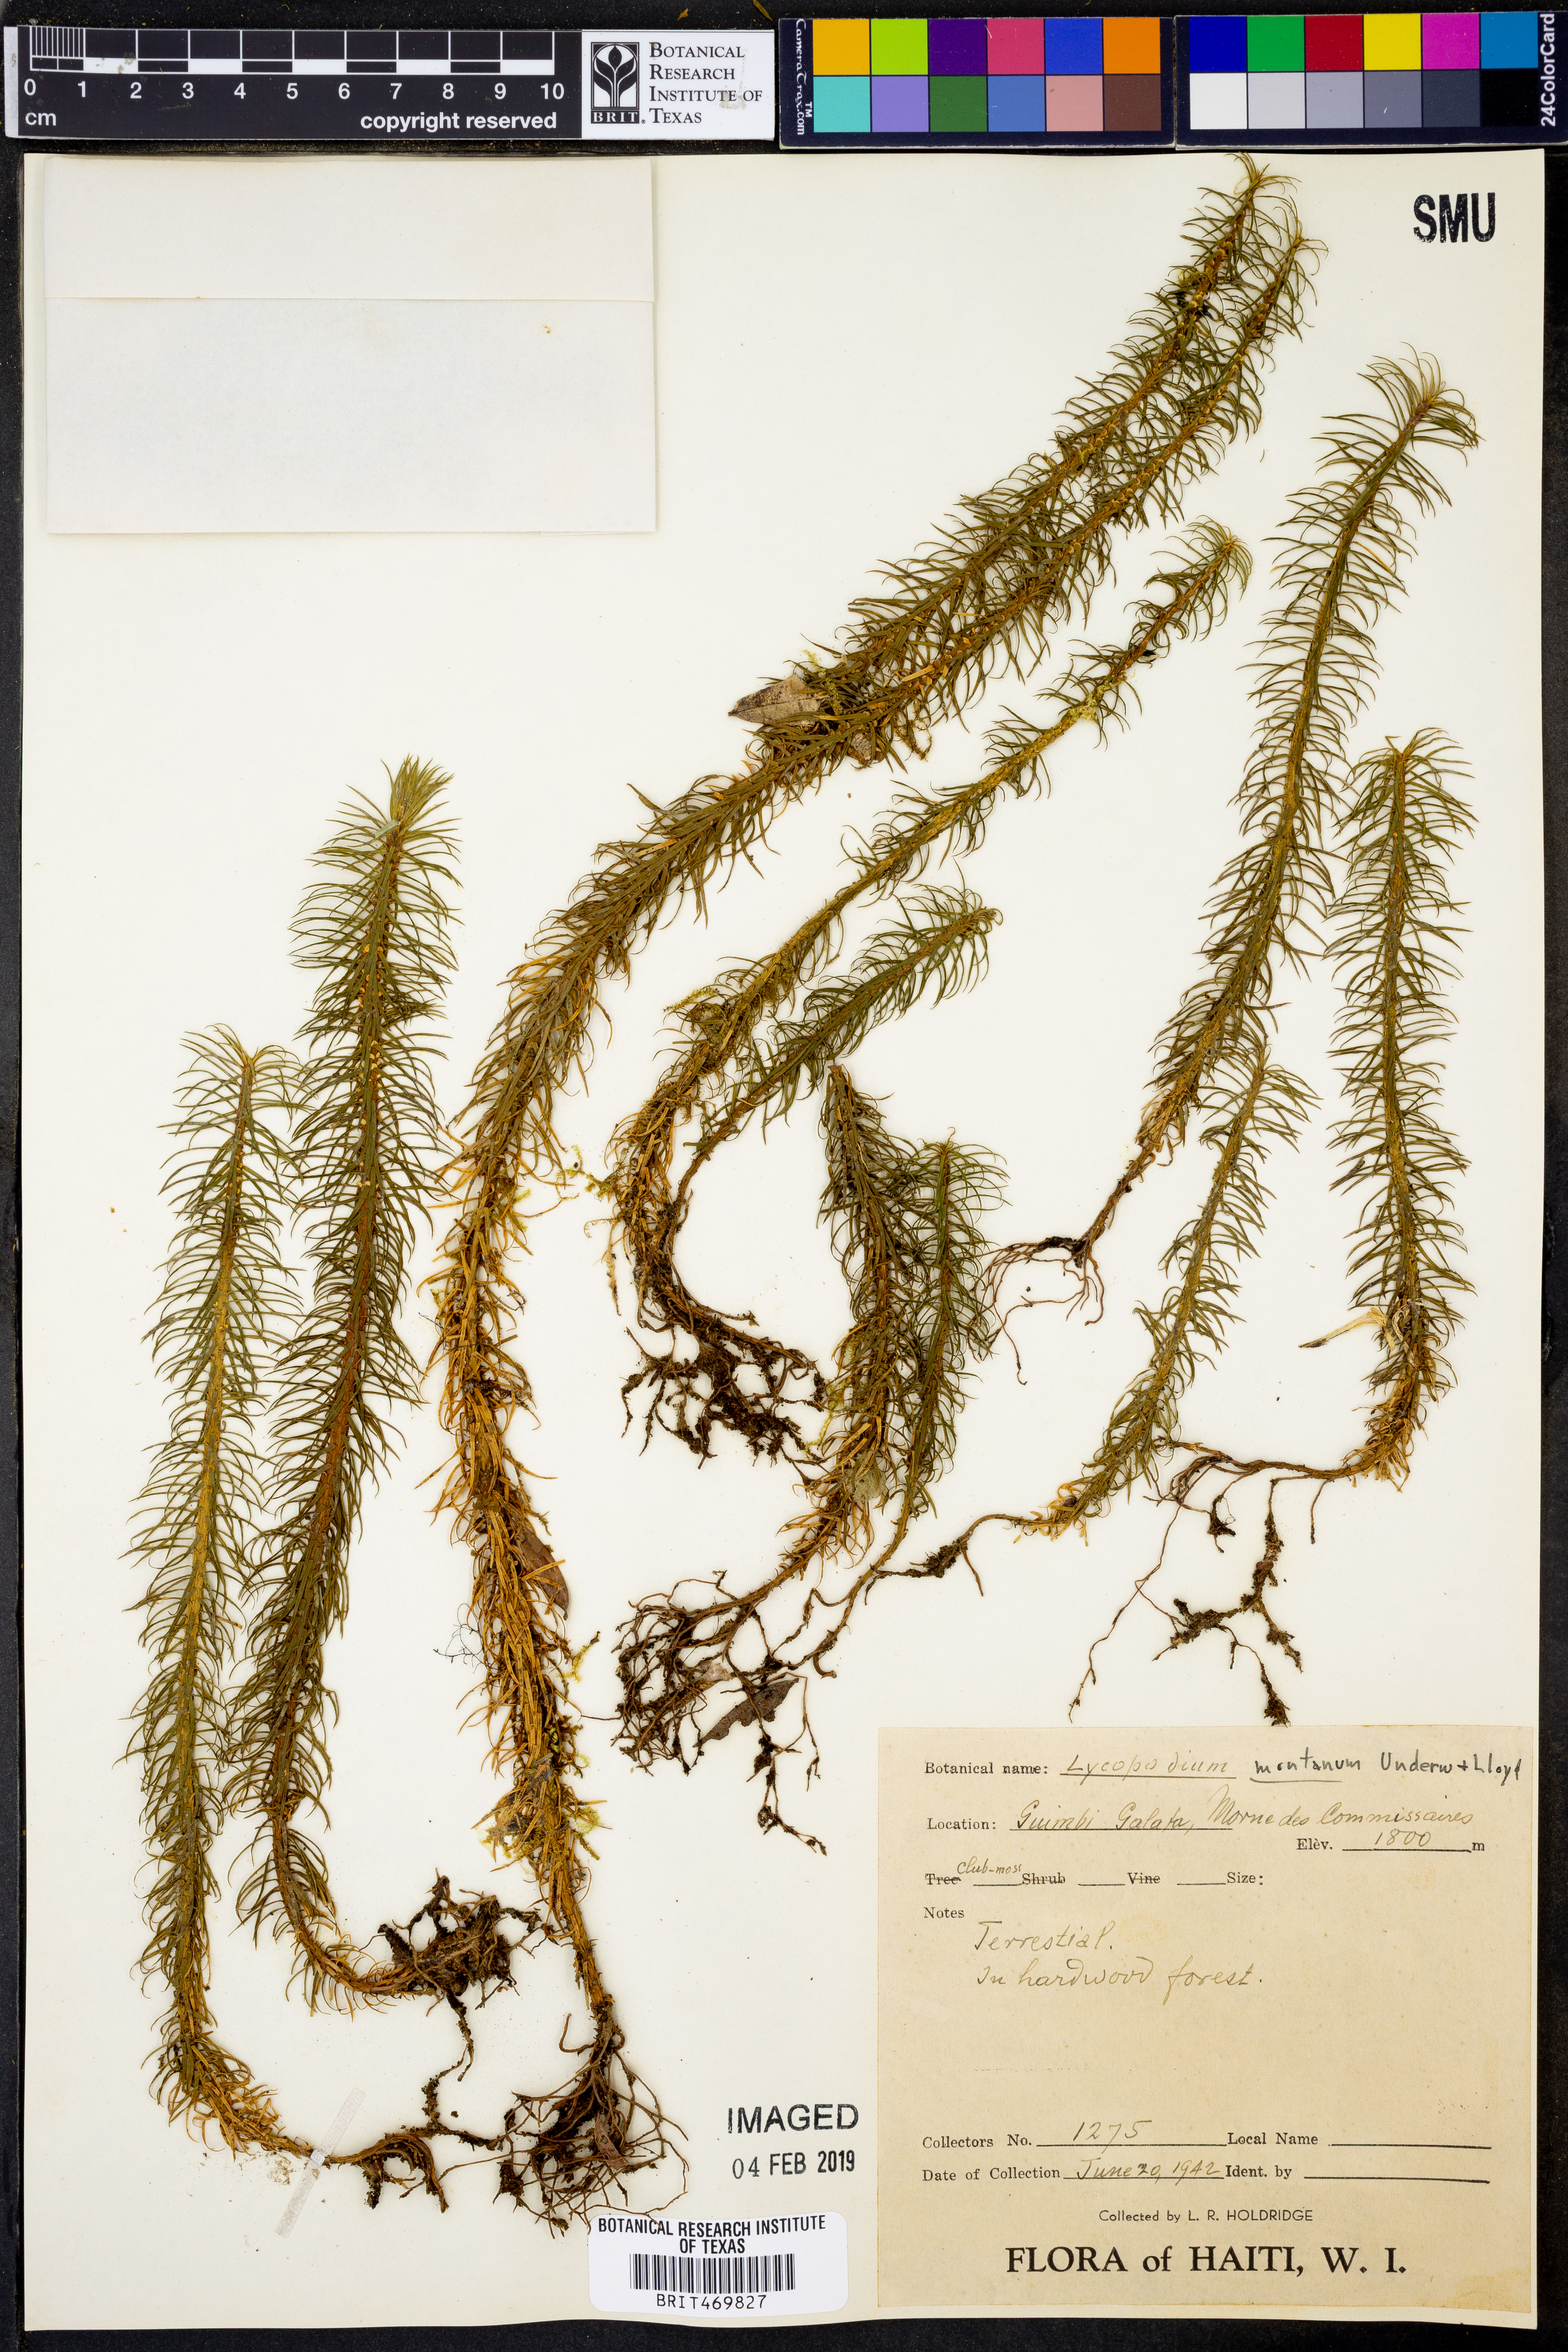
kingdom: Plantae
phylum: Tracheophyta
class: Lycopodiopsida
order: Lycopodiales
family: Lycopodiaceae
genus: Phlegmariurus
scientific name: Phlegmariurus hippurideus
